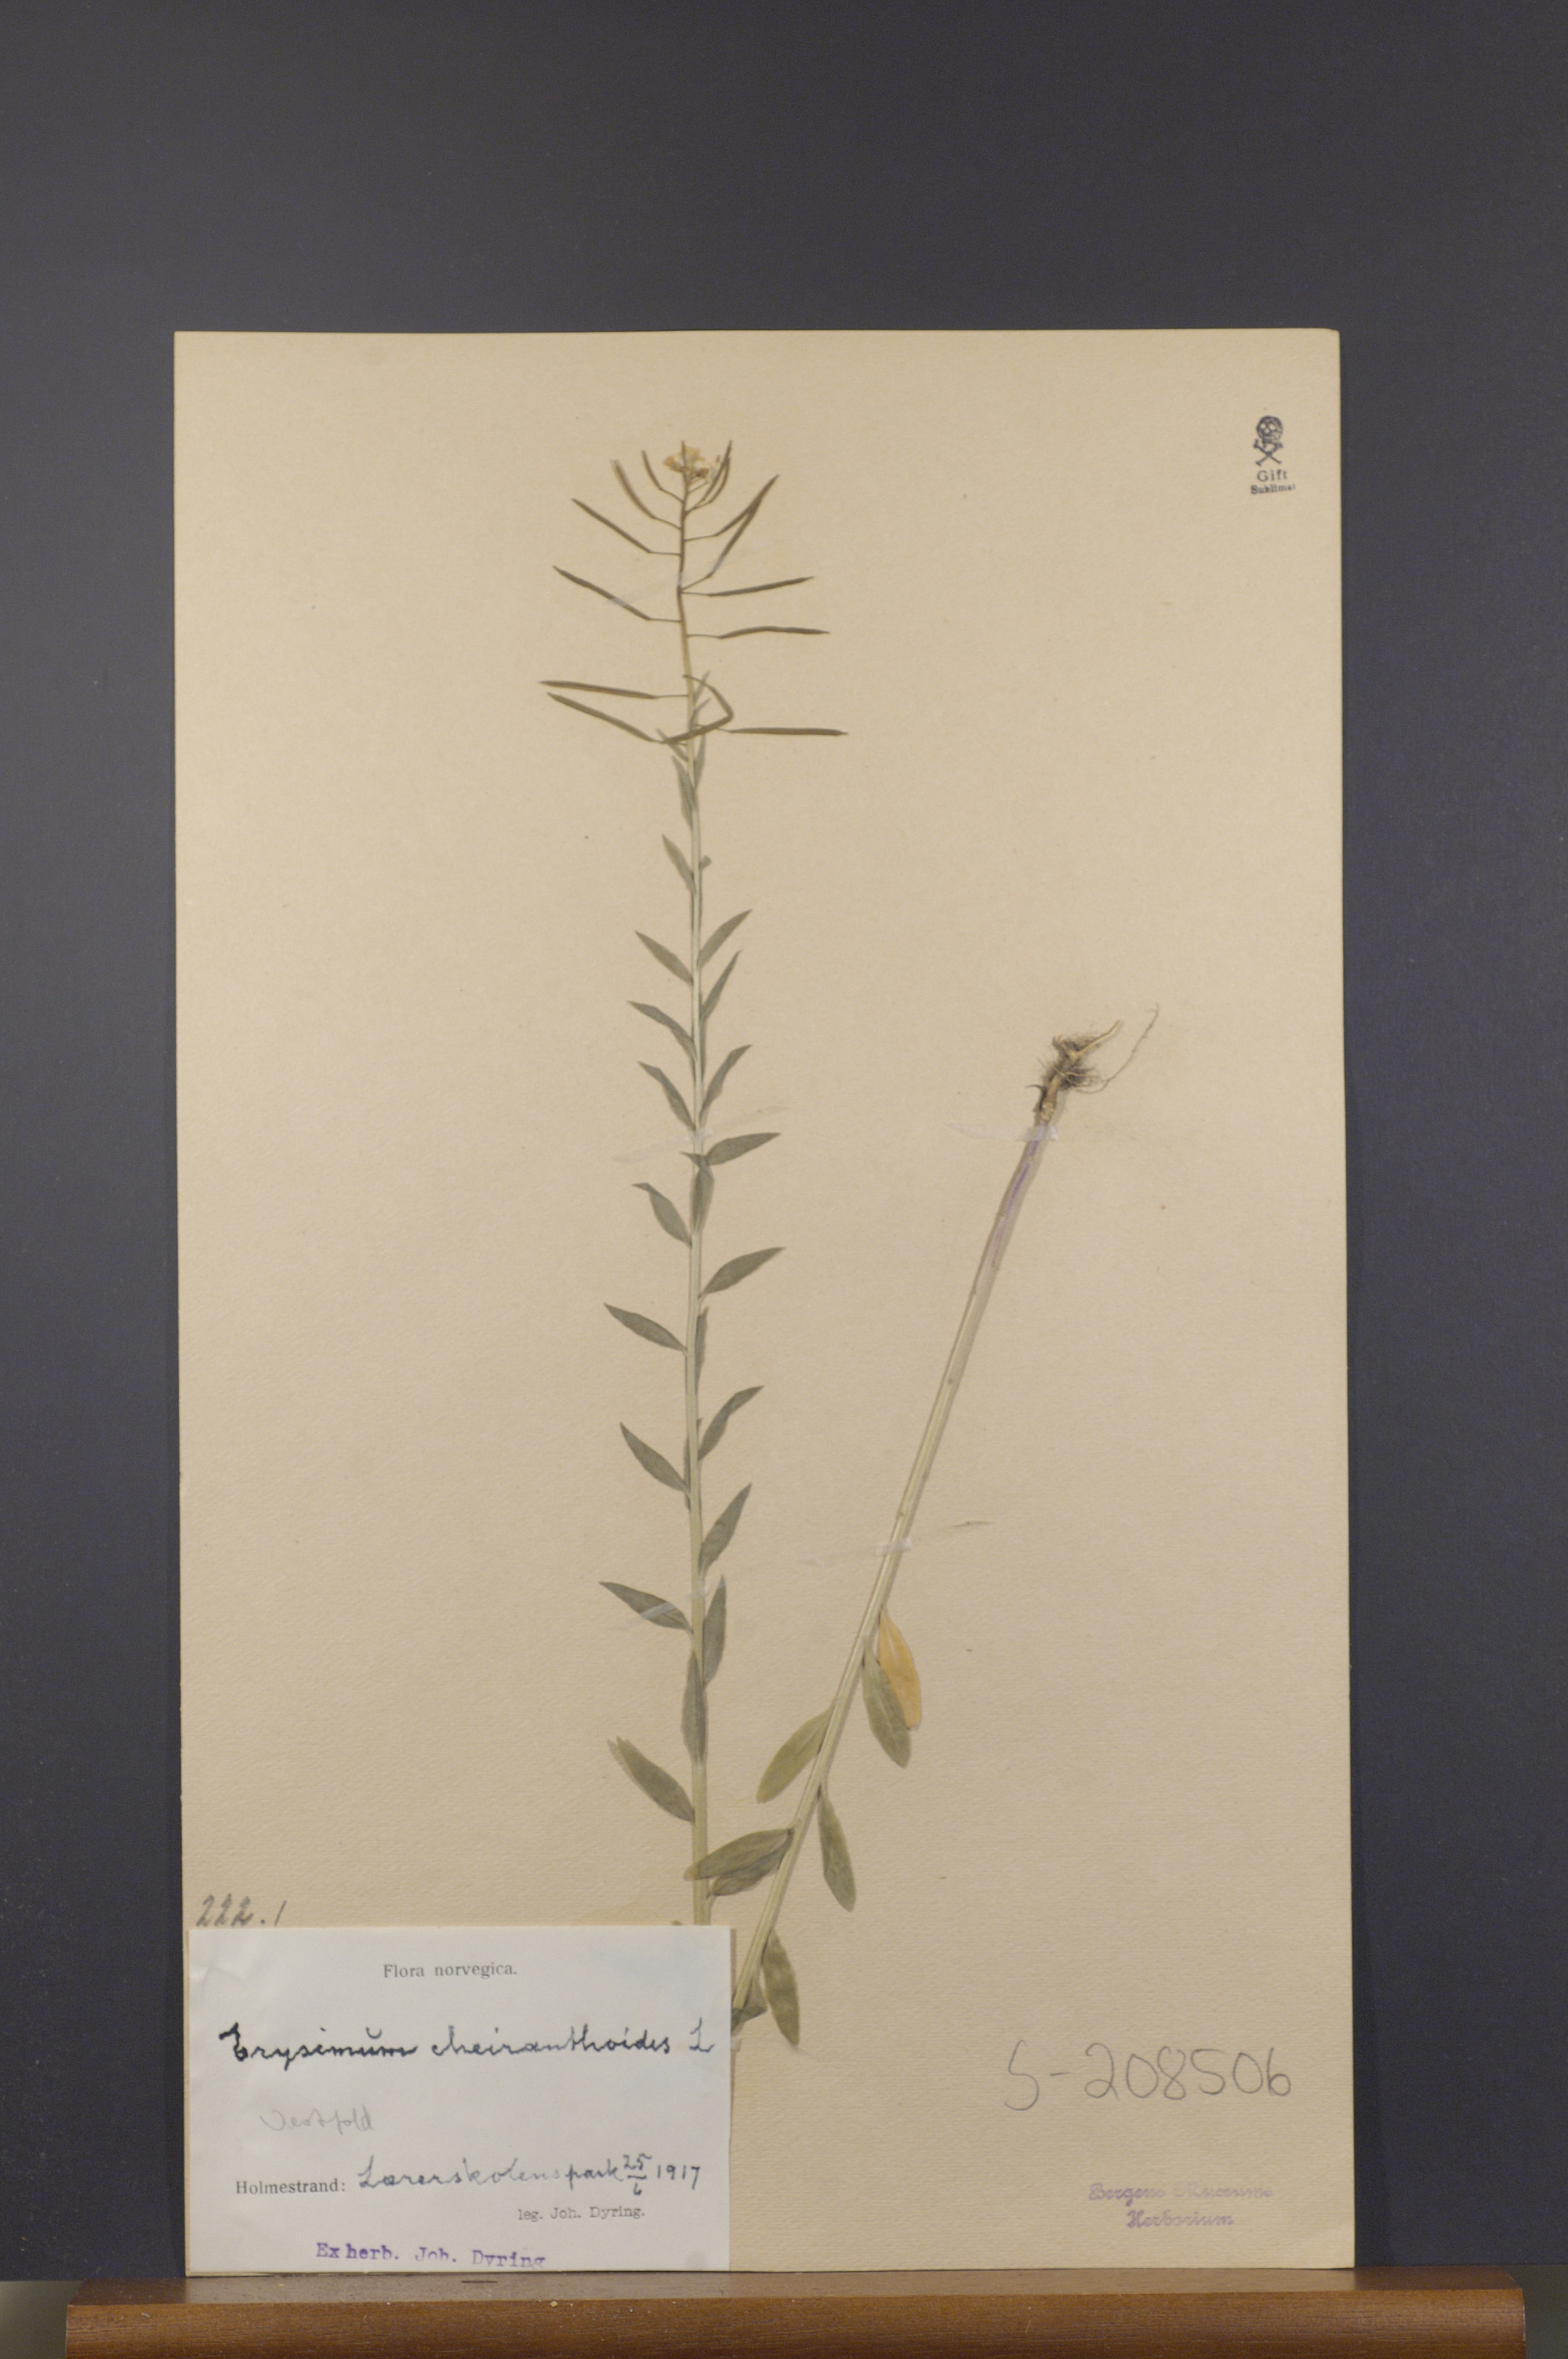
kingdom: Plantae
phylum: Tracheophyta
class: Magnoliopsida
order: Brassicales
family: Brassicaceae
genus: Erysimum
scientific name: Erysimum cheiranthoides
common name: Treacle mustard
